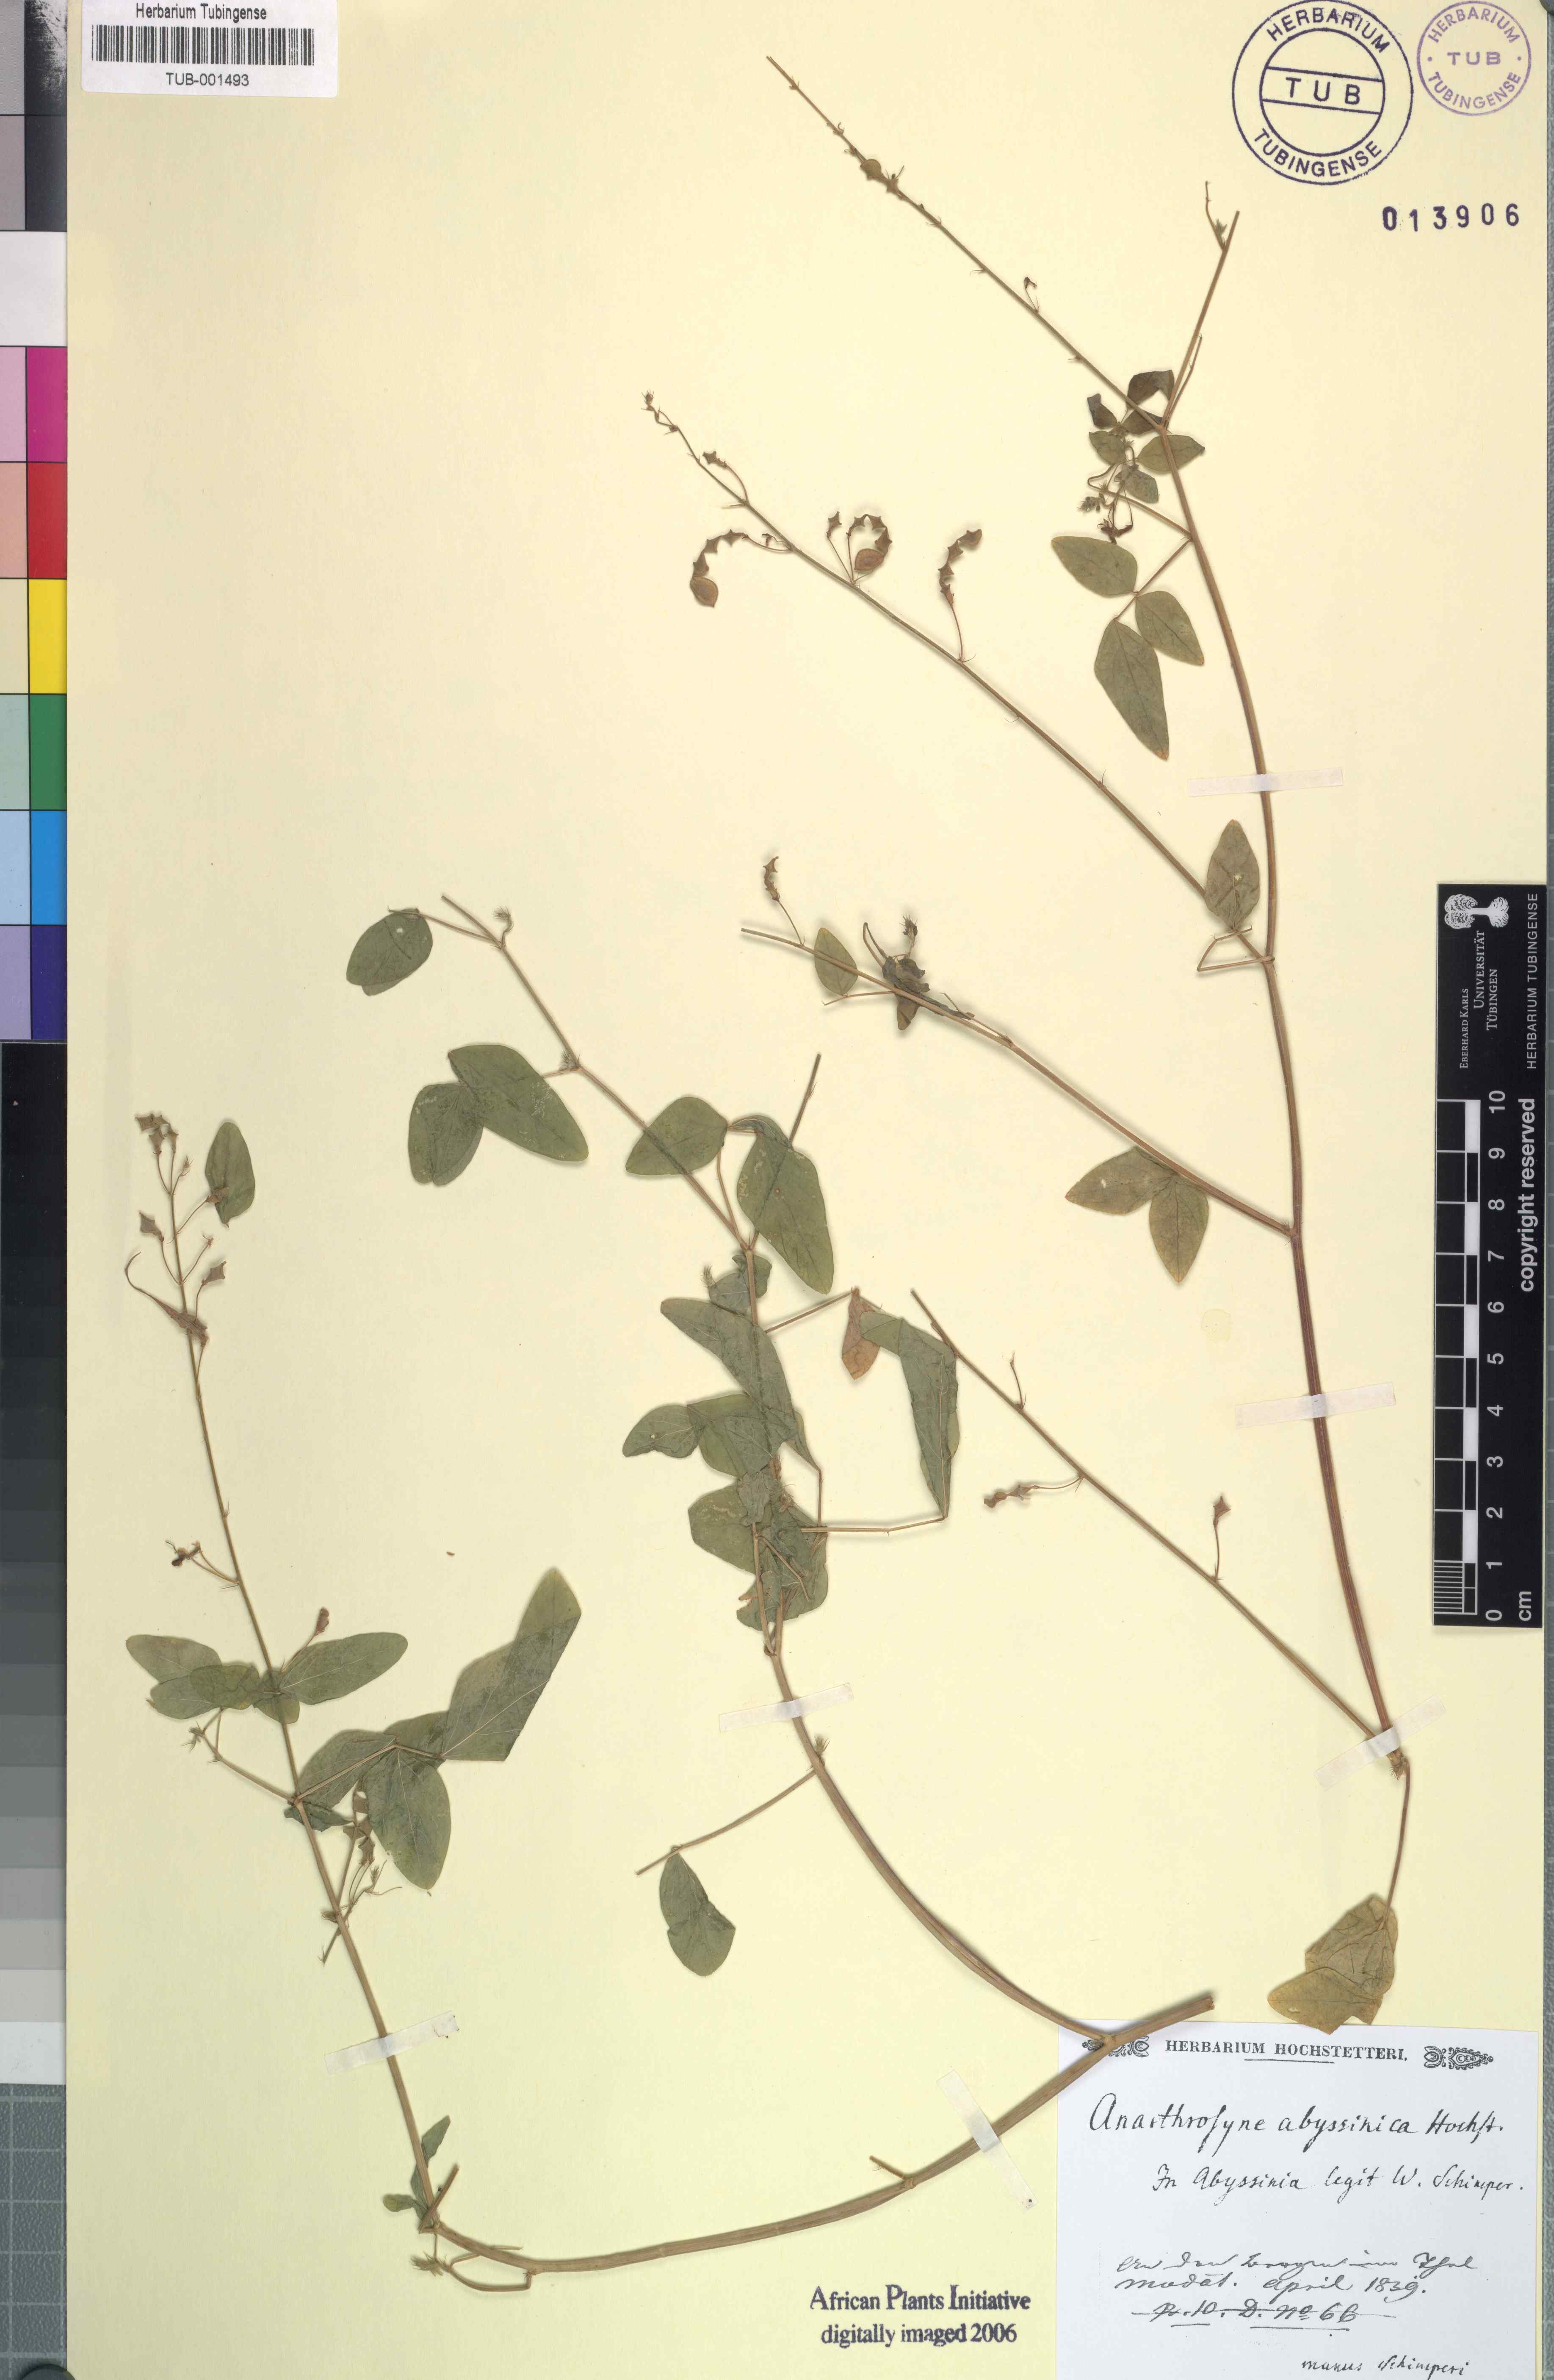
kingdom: Plantae
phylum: Tracheophyta
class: Magnoliopsida
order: Fabales
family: Fabaceae
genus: Desmodium
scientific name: Desmodium procumbens
